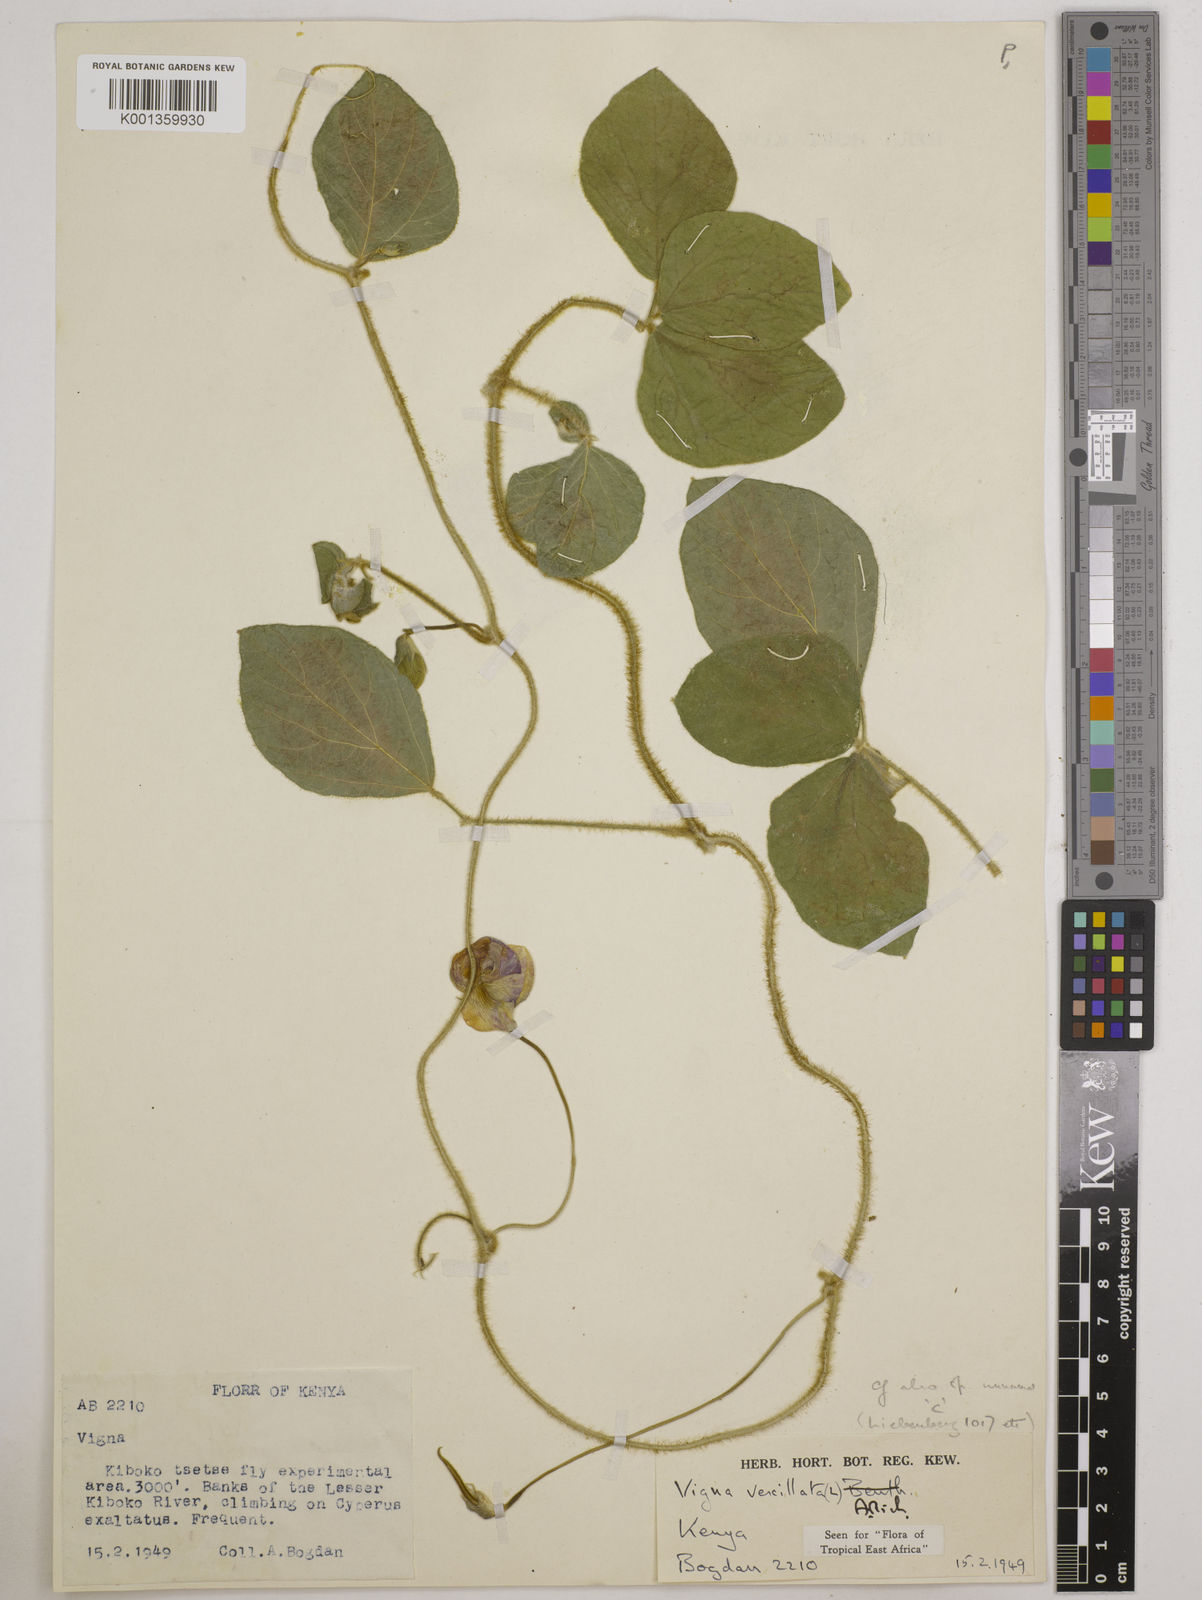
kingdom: Plantae
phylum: Tracheophyta
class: Magnoliopsida
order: Fabales
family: Fabaceae
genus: Vigna
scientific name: Vigna vexillata
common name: Zombi pea
